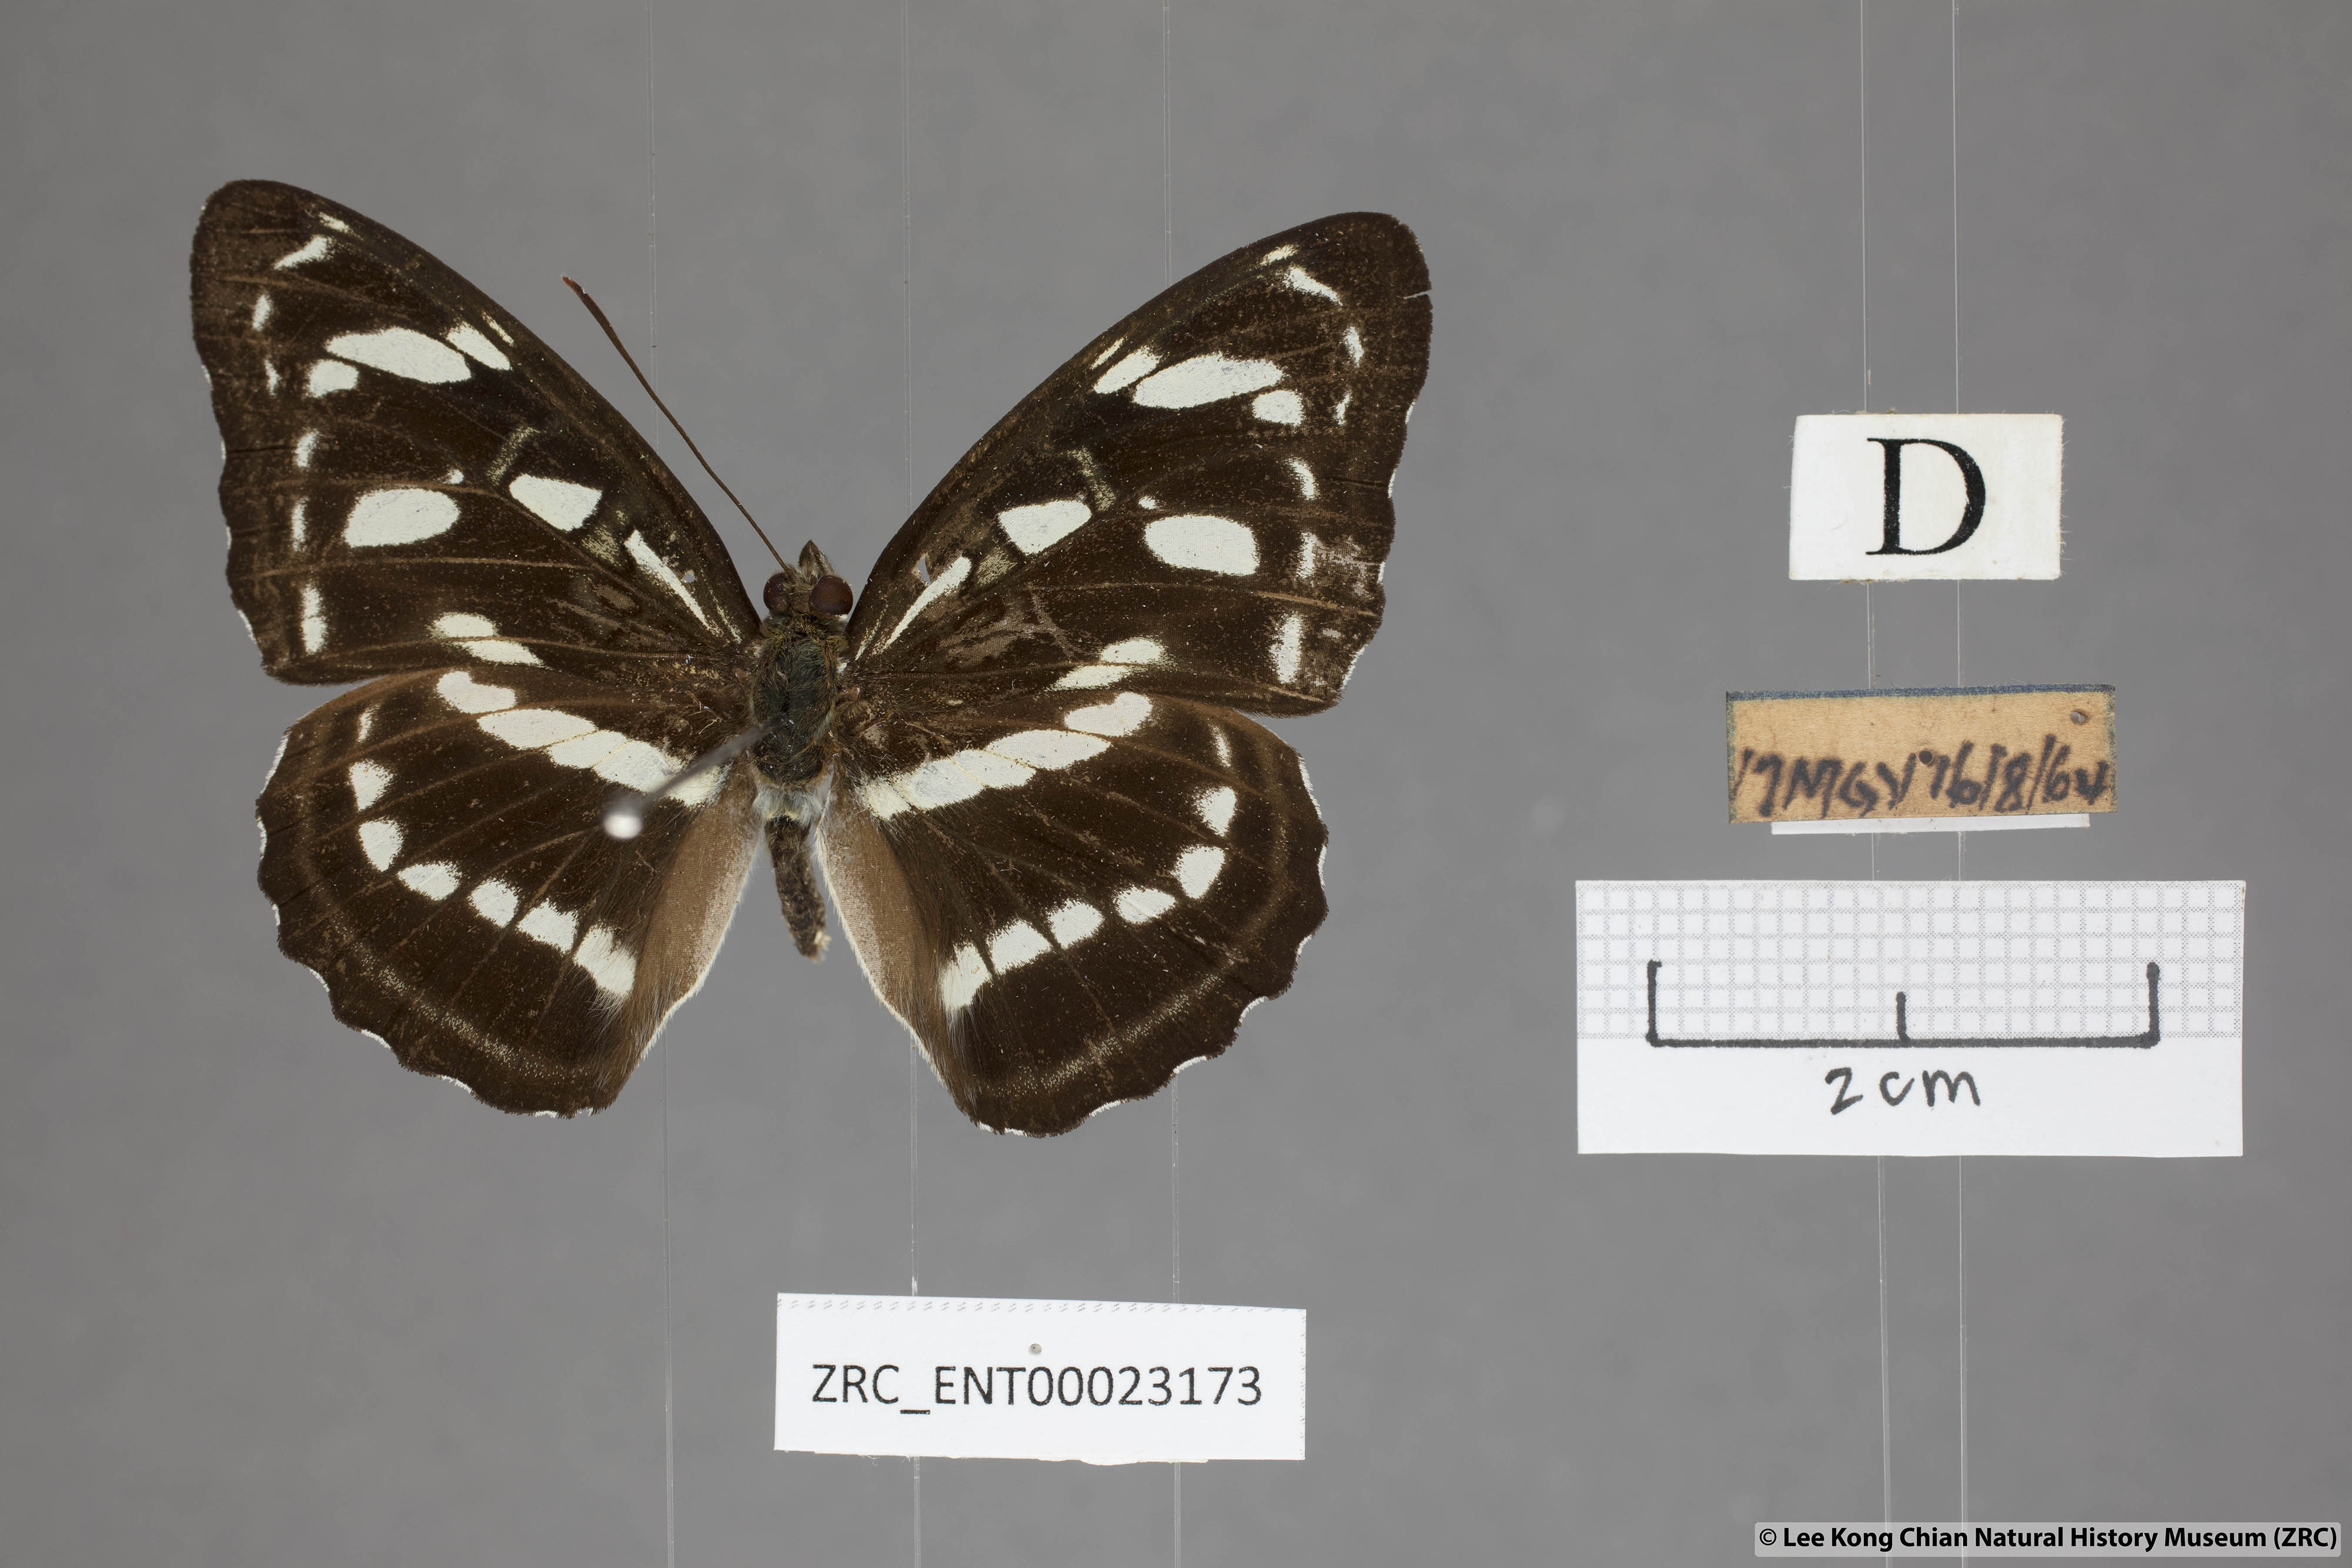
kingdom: Animalia
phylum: Arthropoda
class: Insecta
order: Lepidoptera
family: Nymphalidae
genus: Parathyma
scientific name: Parathyma abiasa
